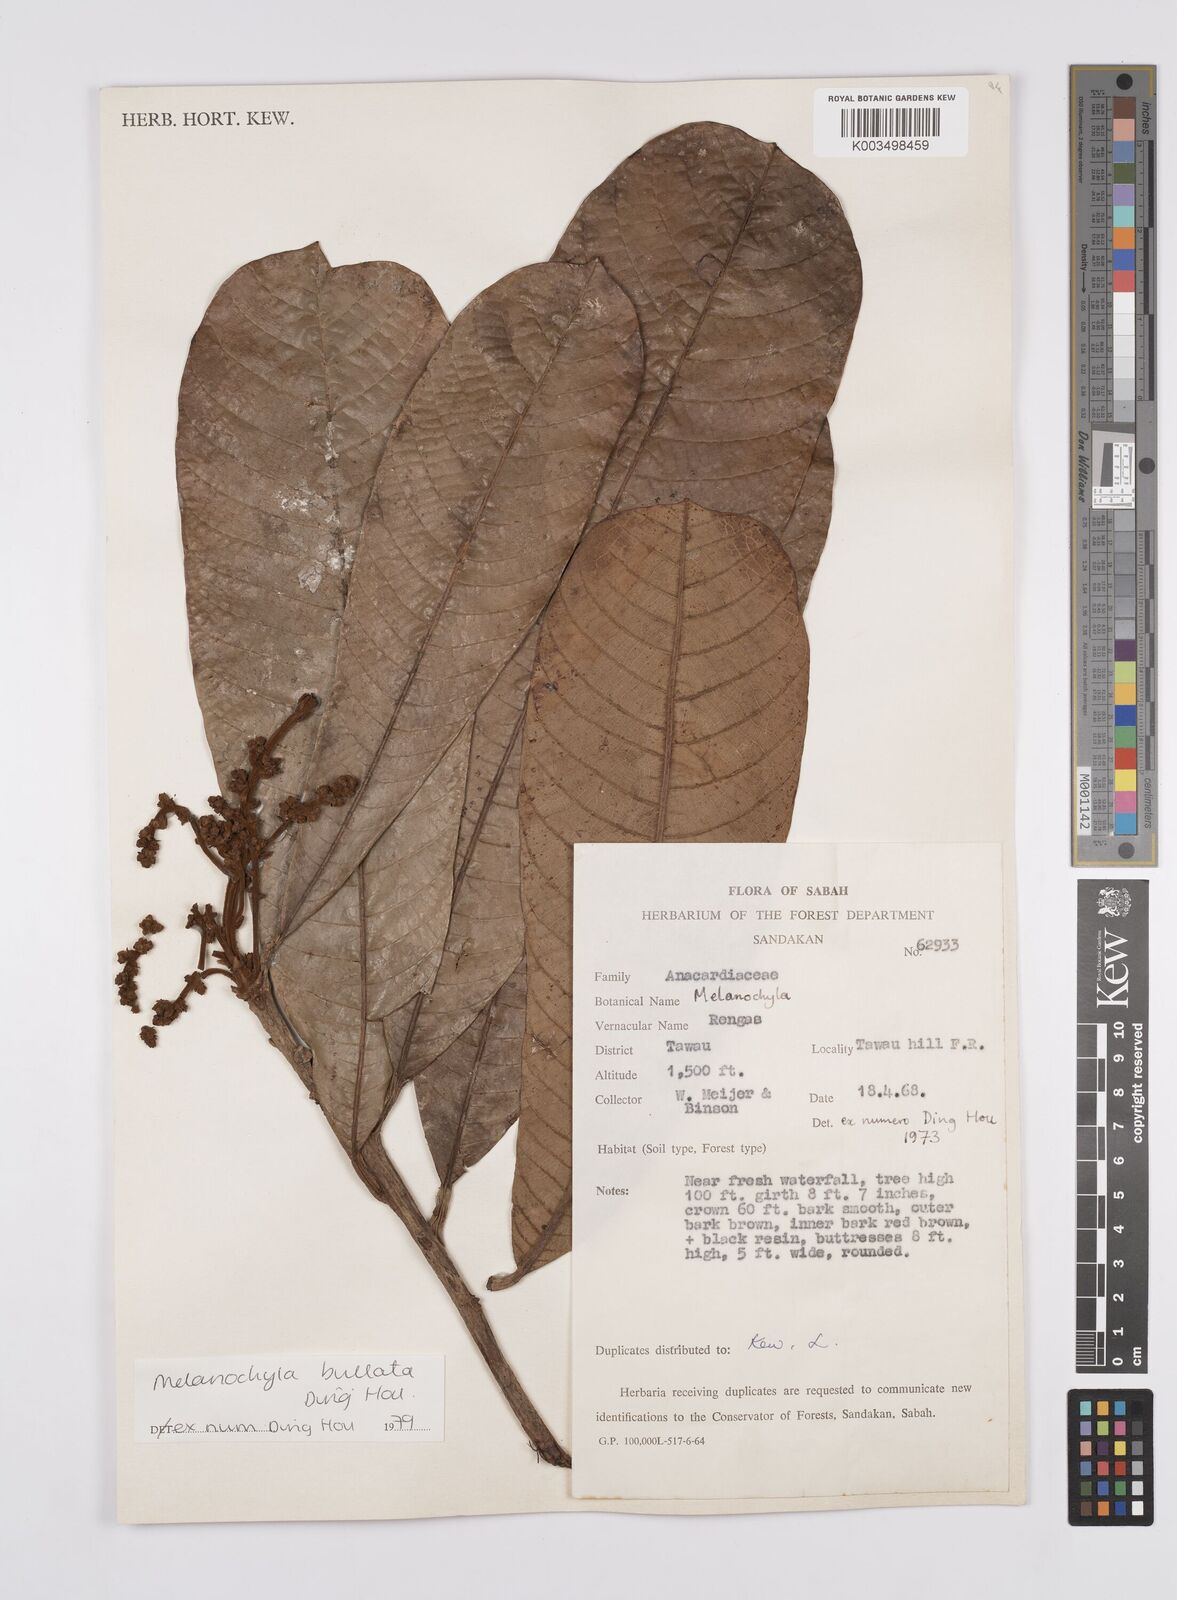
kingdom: Plantae
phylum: Tracheophyta
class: Magnoliopsida
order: Sapindales
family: Anacardiaceae
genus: Melanochyla
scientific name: Melanochyla bullata
